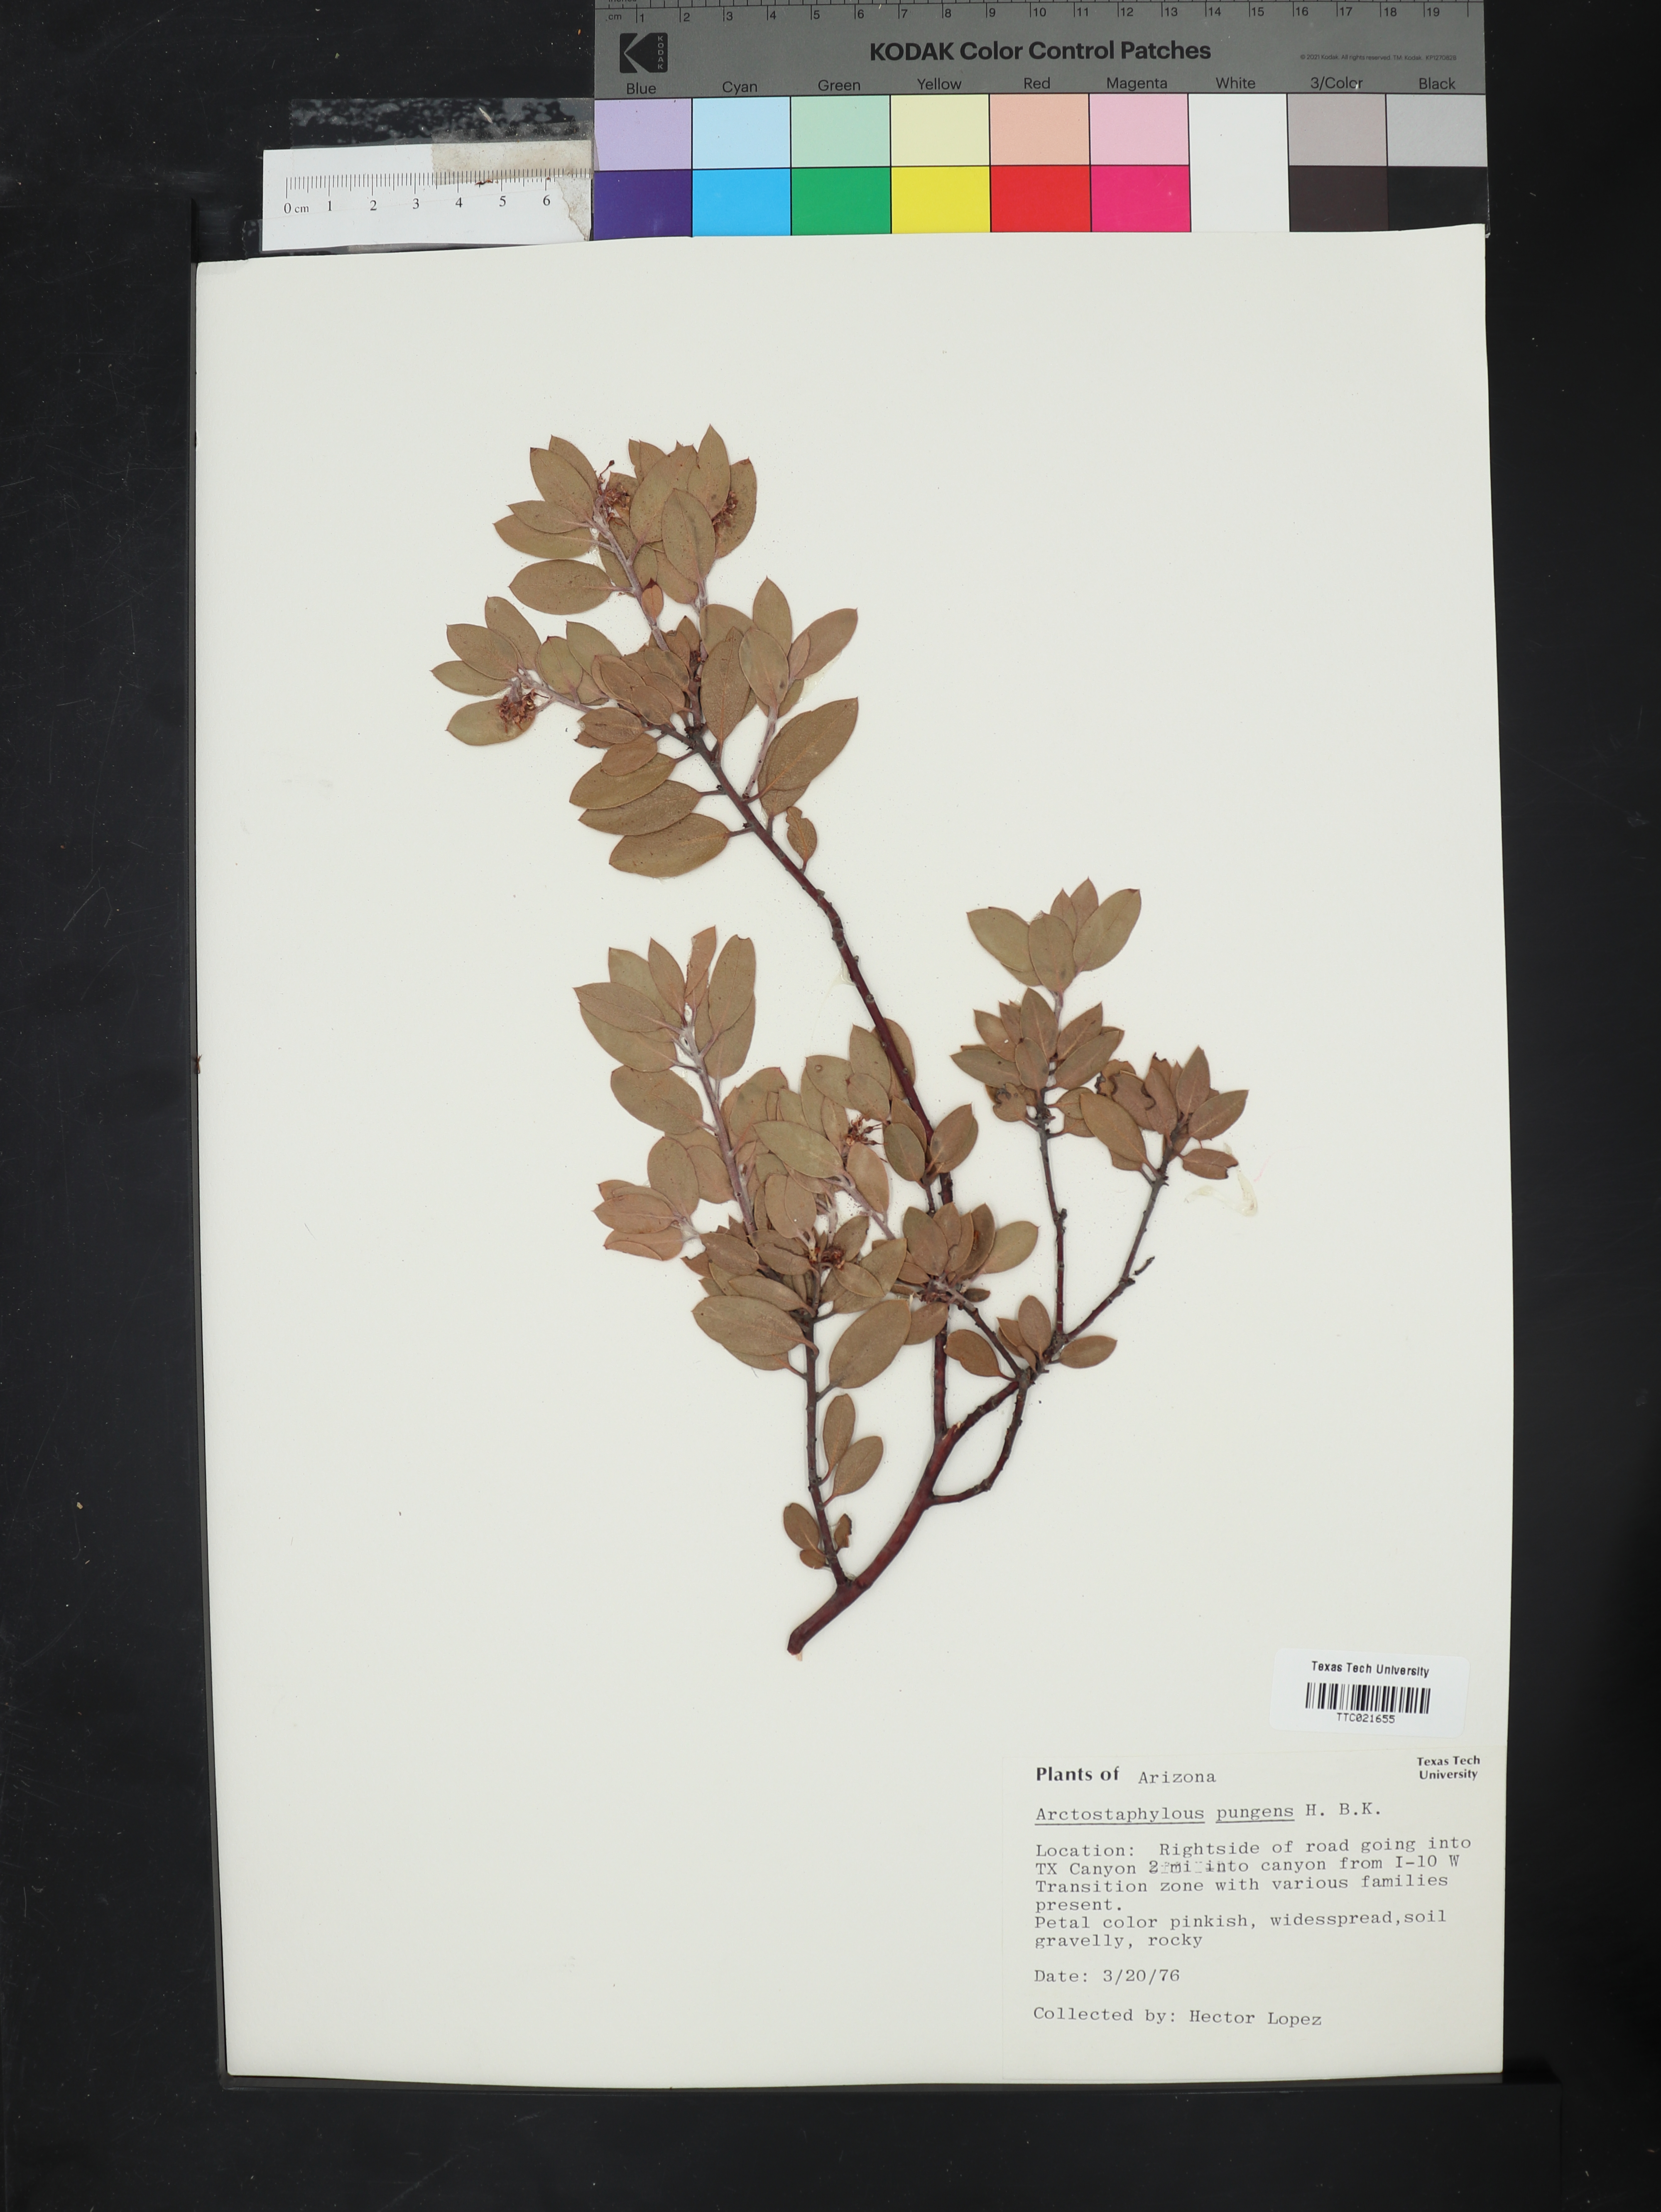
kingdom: Plantae
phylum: Tracheophyta
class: Magnoliopsida
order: Ericales
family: Ericaceae
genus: Arctostaphylos
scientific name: Arctostaphylos pungens
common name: Mexican manzanita
